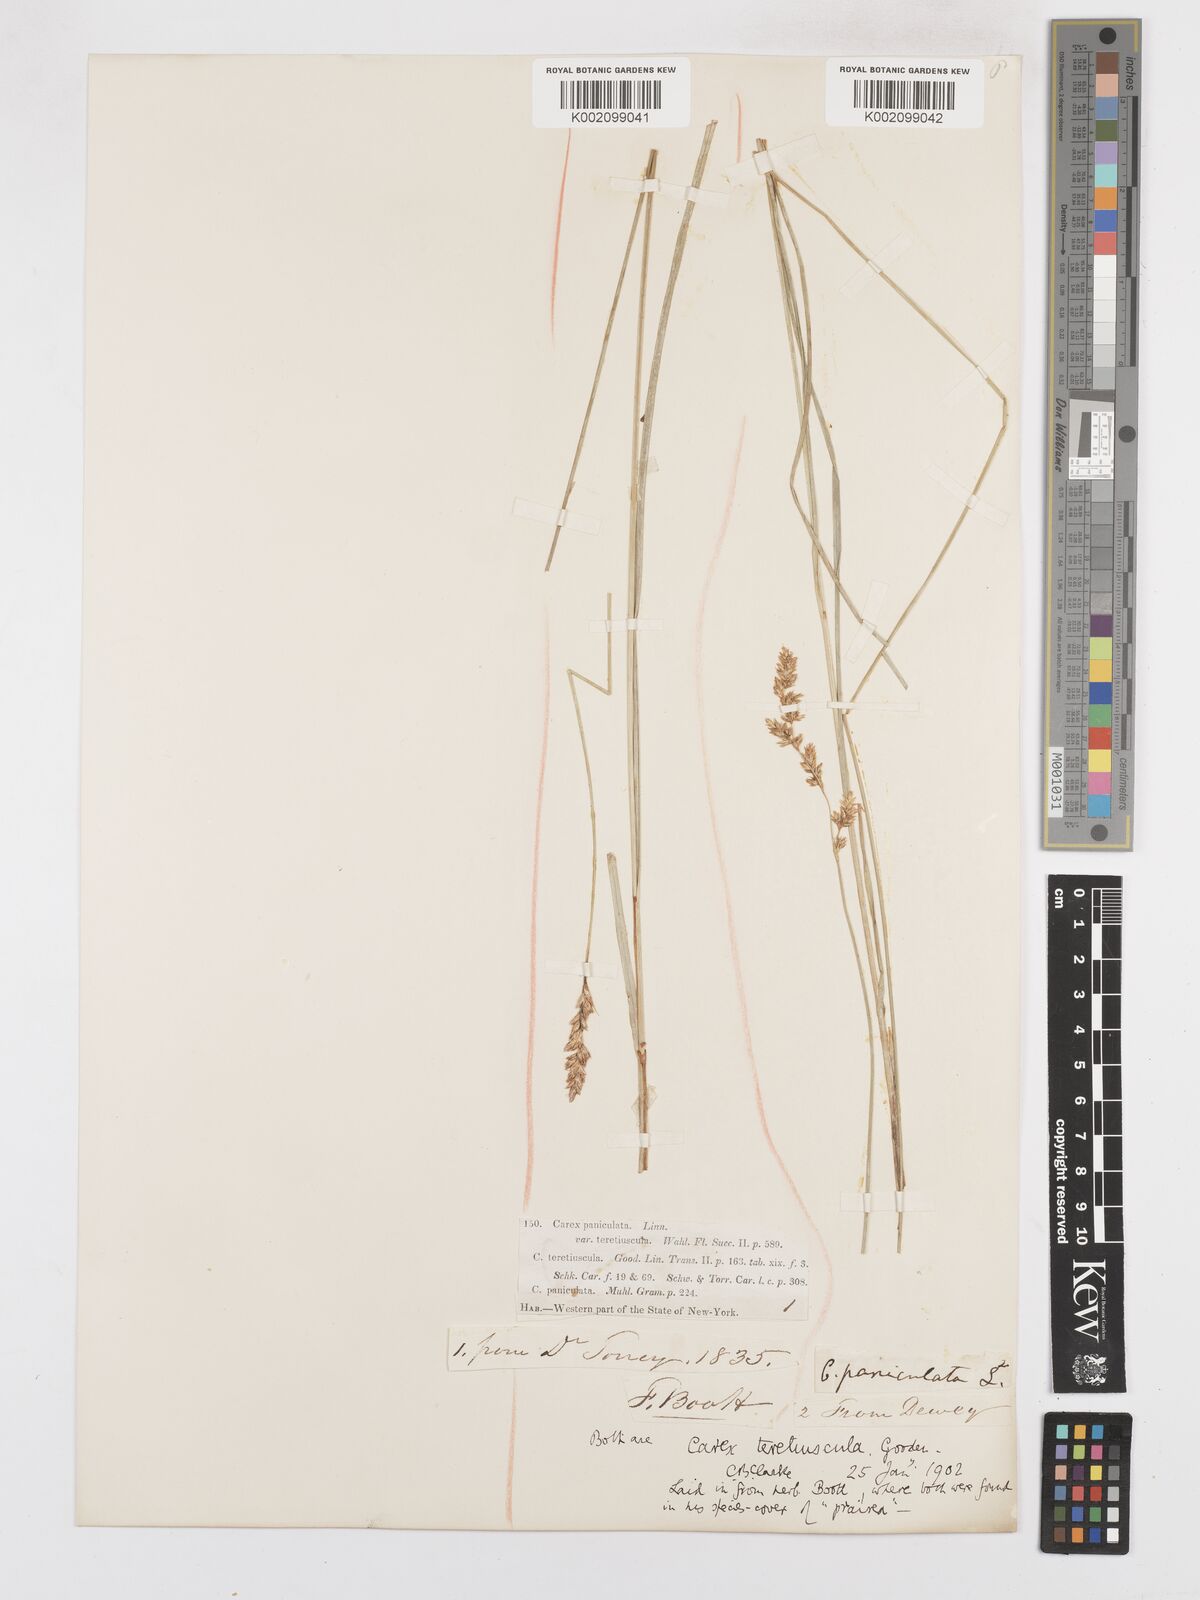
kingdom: Plantae
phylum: Tracheophyta
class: Liliopsida
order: Poales
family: Cyperaceae
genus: Carex
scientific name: Carex diandra
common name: Lesser tussock-sedge
